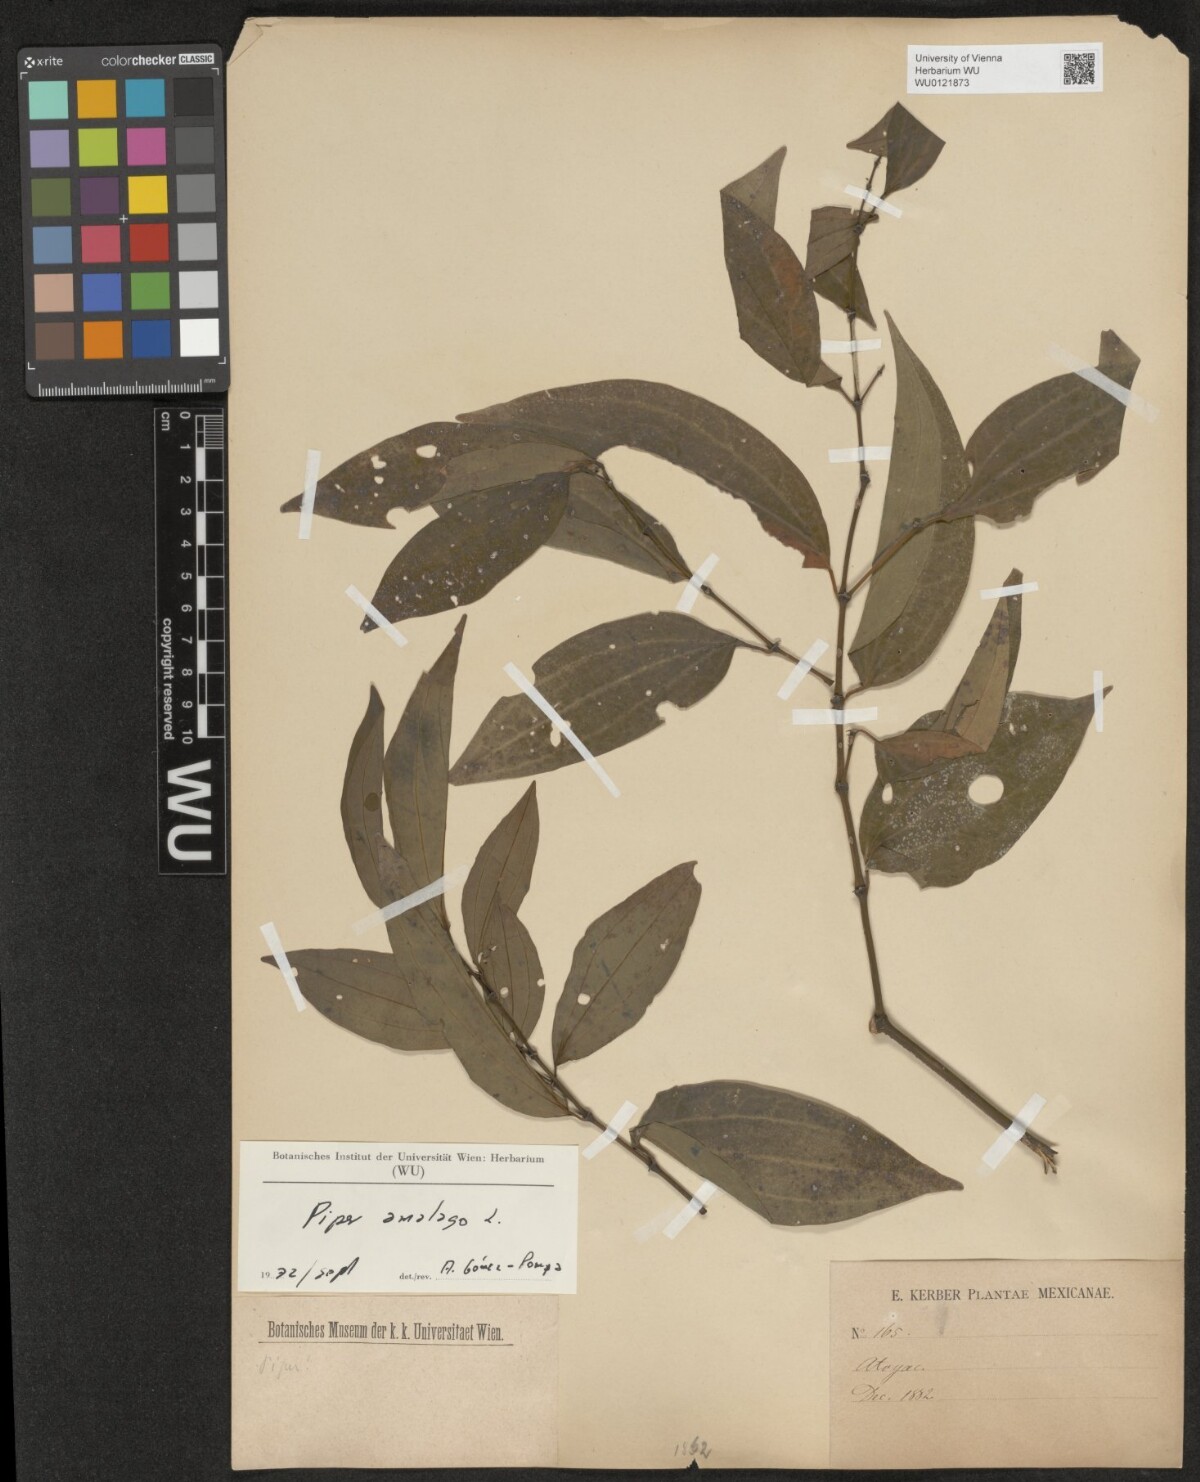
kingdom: Plantae
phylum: Tracheophyta
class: Magnoliopsida
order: Piperales
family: Piperaceae
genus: Piper
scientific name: Piper amalago
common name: Pepper-elder
